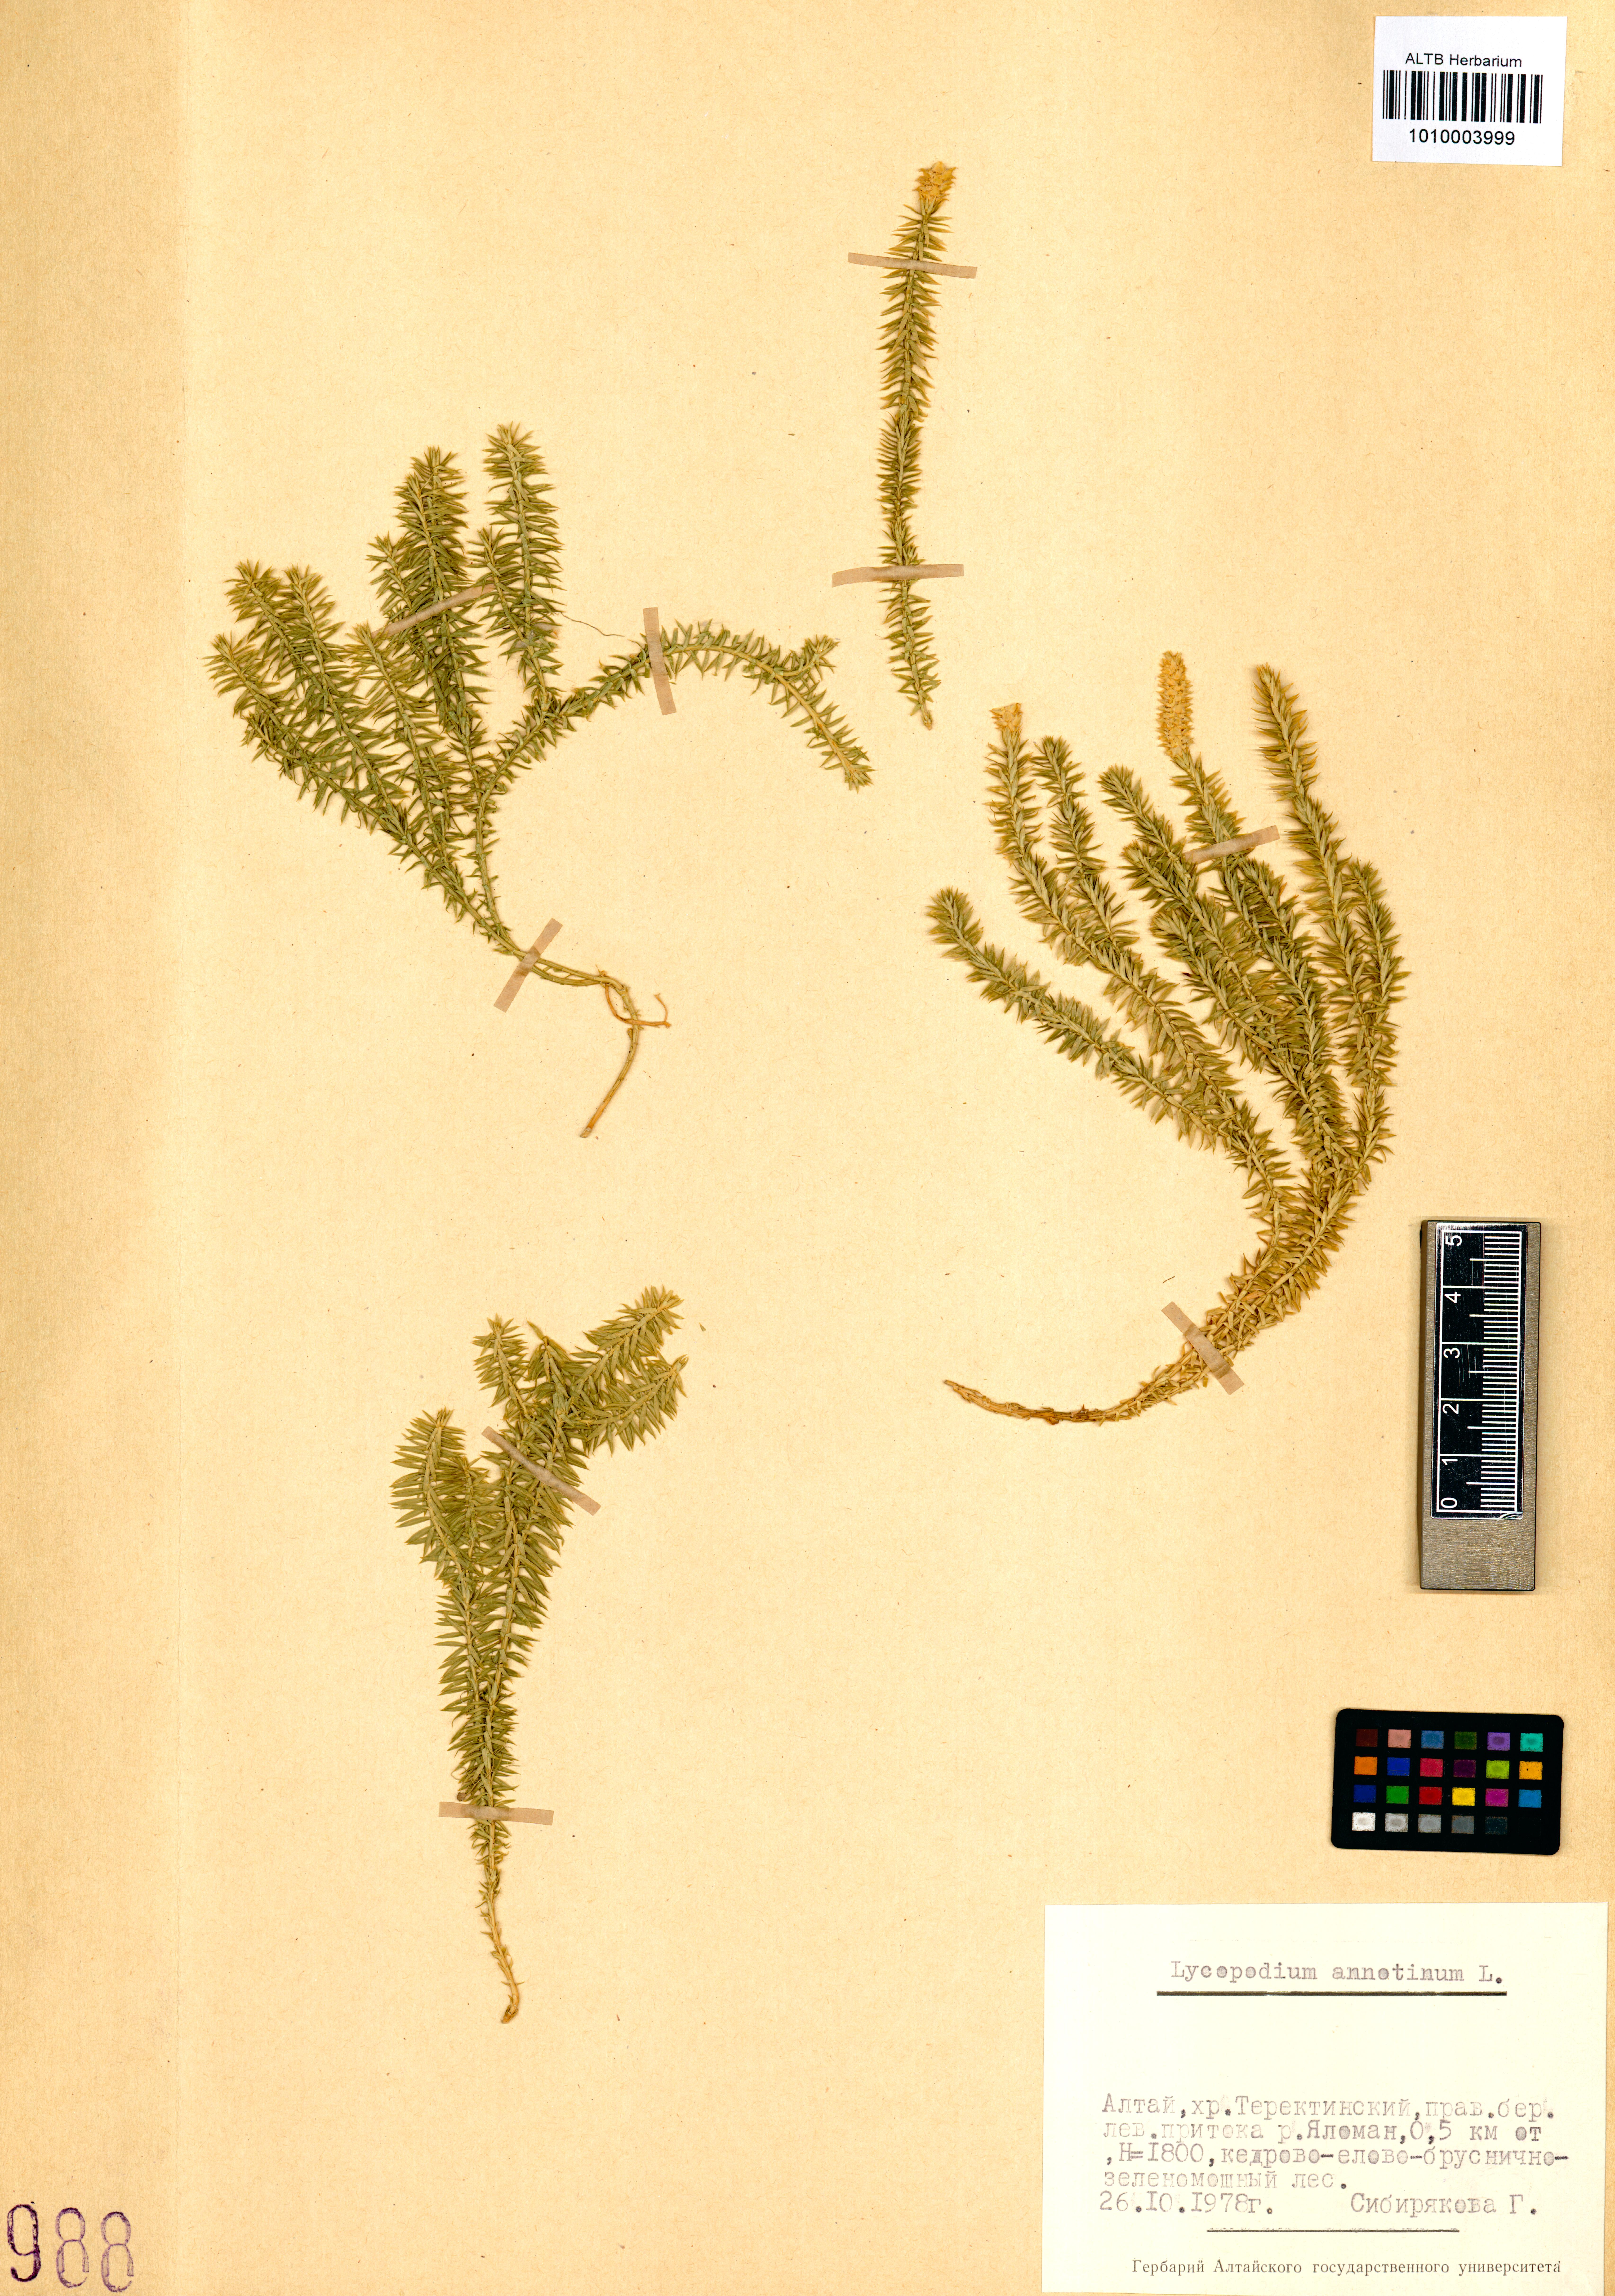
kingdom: Plantae
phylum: Tracheophyta
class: Lycopodiopsida
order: Lycopodiales
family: Lycopodiaceae
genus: Spinulum
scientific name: Spinulum annotinum
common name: Interrupted club-moss
